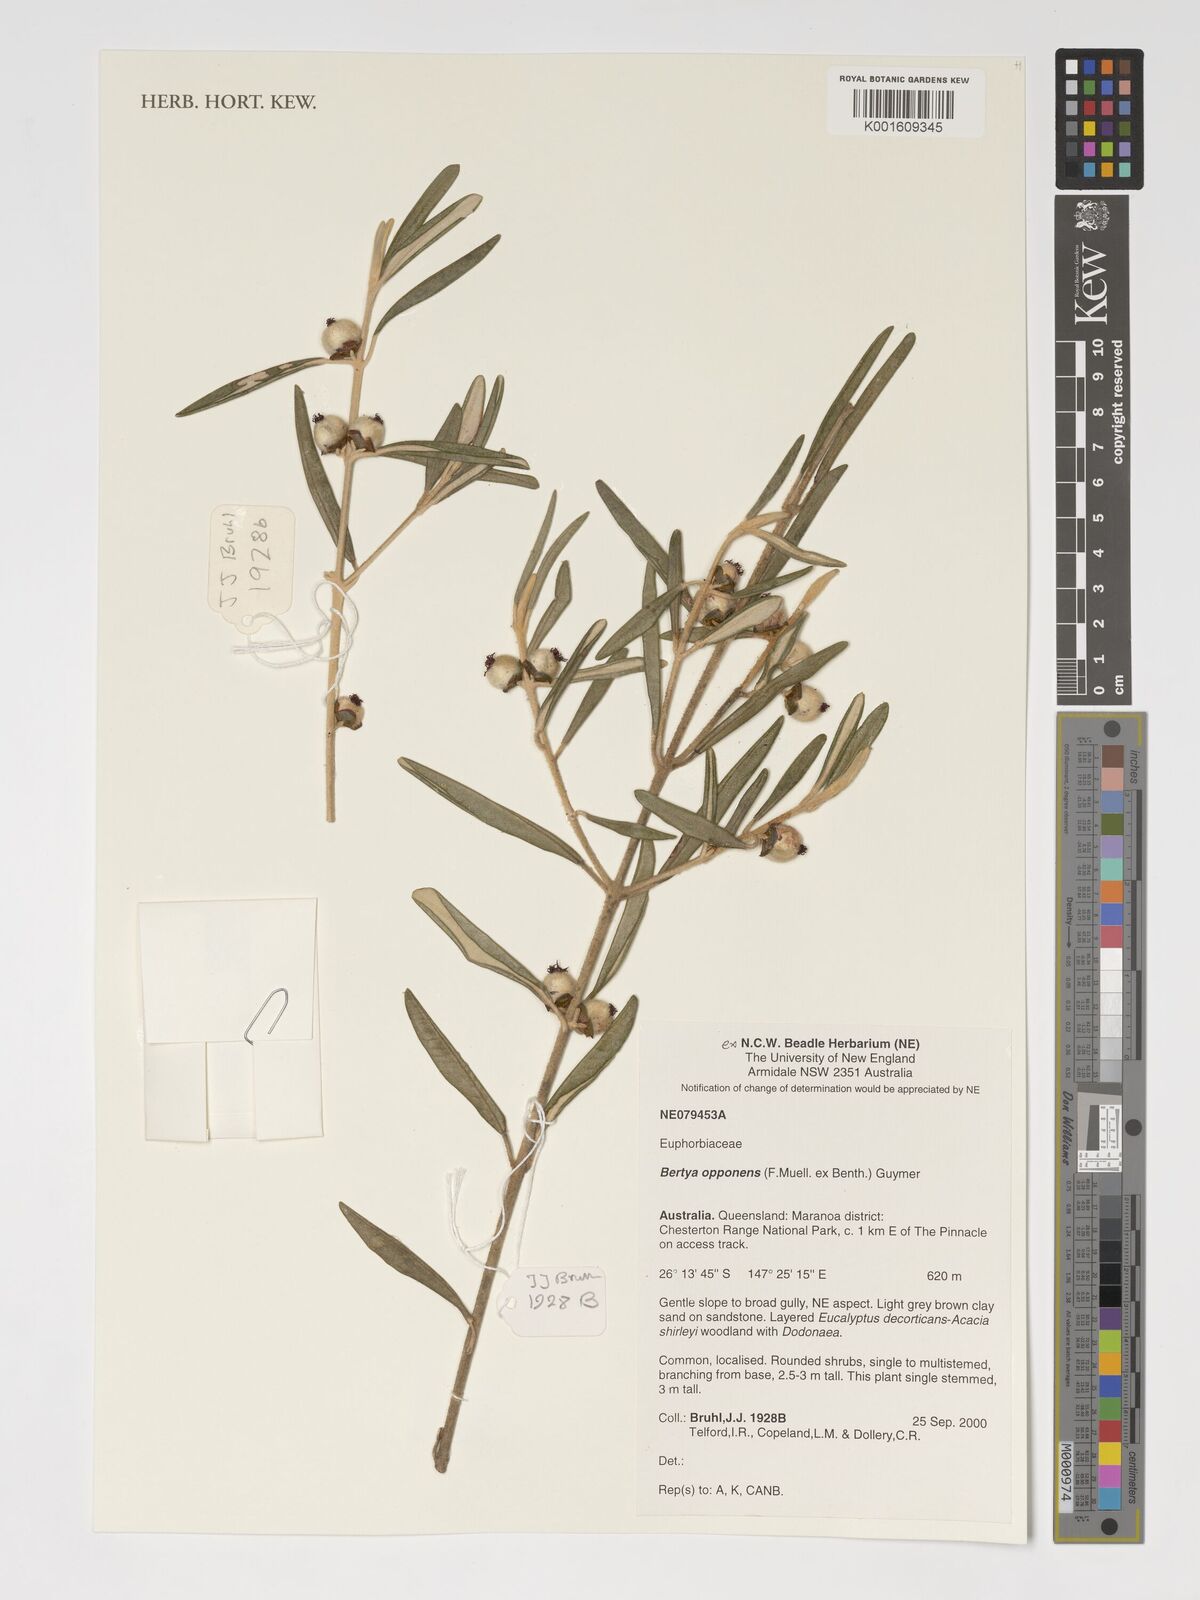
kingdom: Plantae
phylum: Tracheophyta
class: Magnoliopsida
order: Malpighiales
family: Euphorbiaceae
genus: Bertya
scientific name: Bertya opponens
